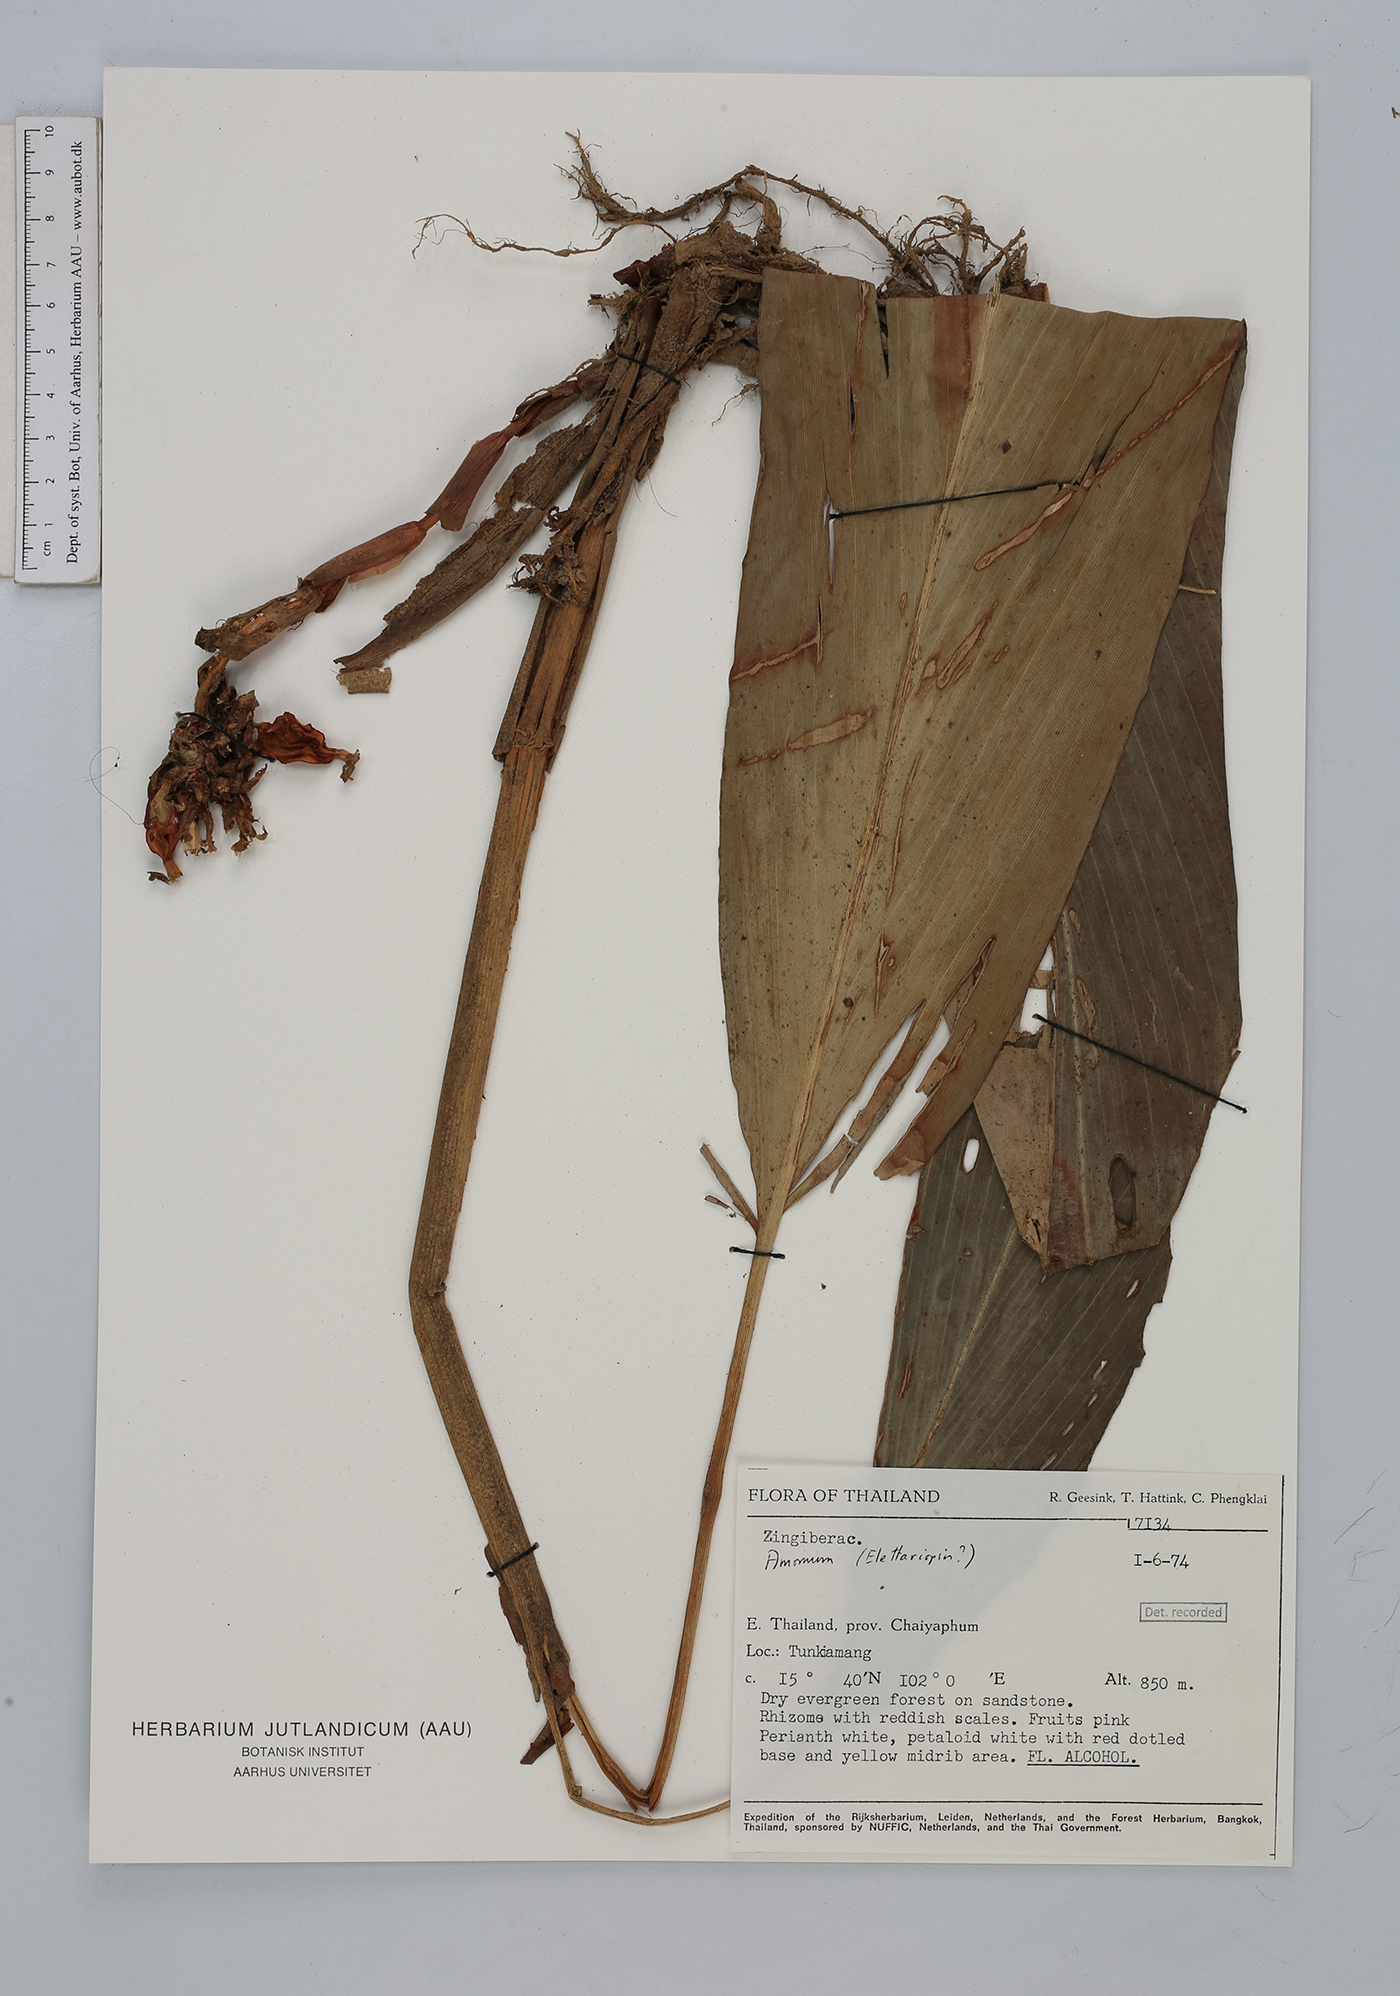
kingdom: Plantae
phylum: Tracheophyta
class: Liliopsida
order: Zingiberales
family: Zingiberaceae
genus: Amomum
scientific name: Amomum
